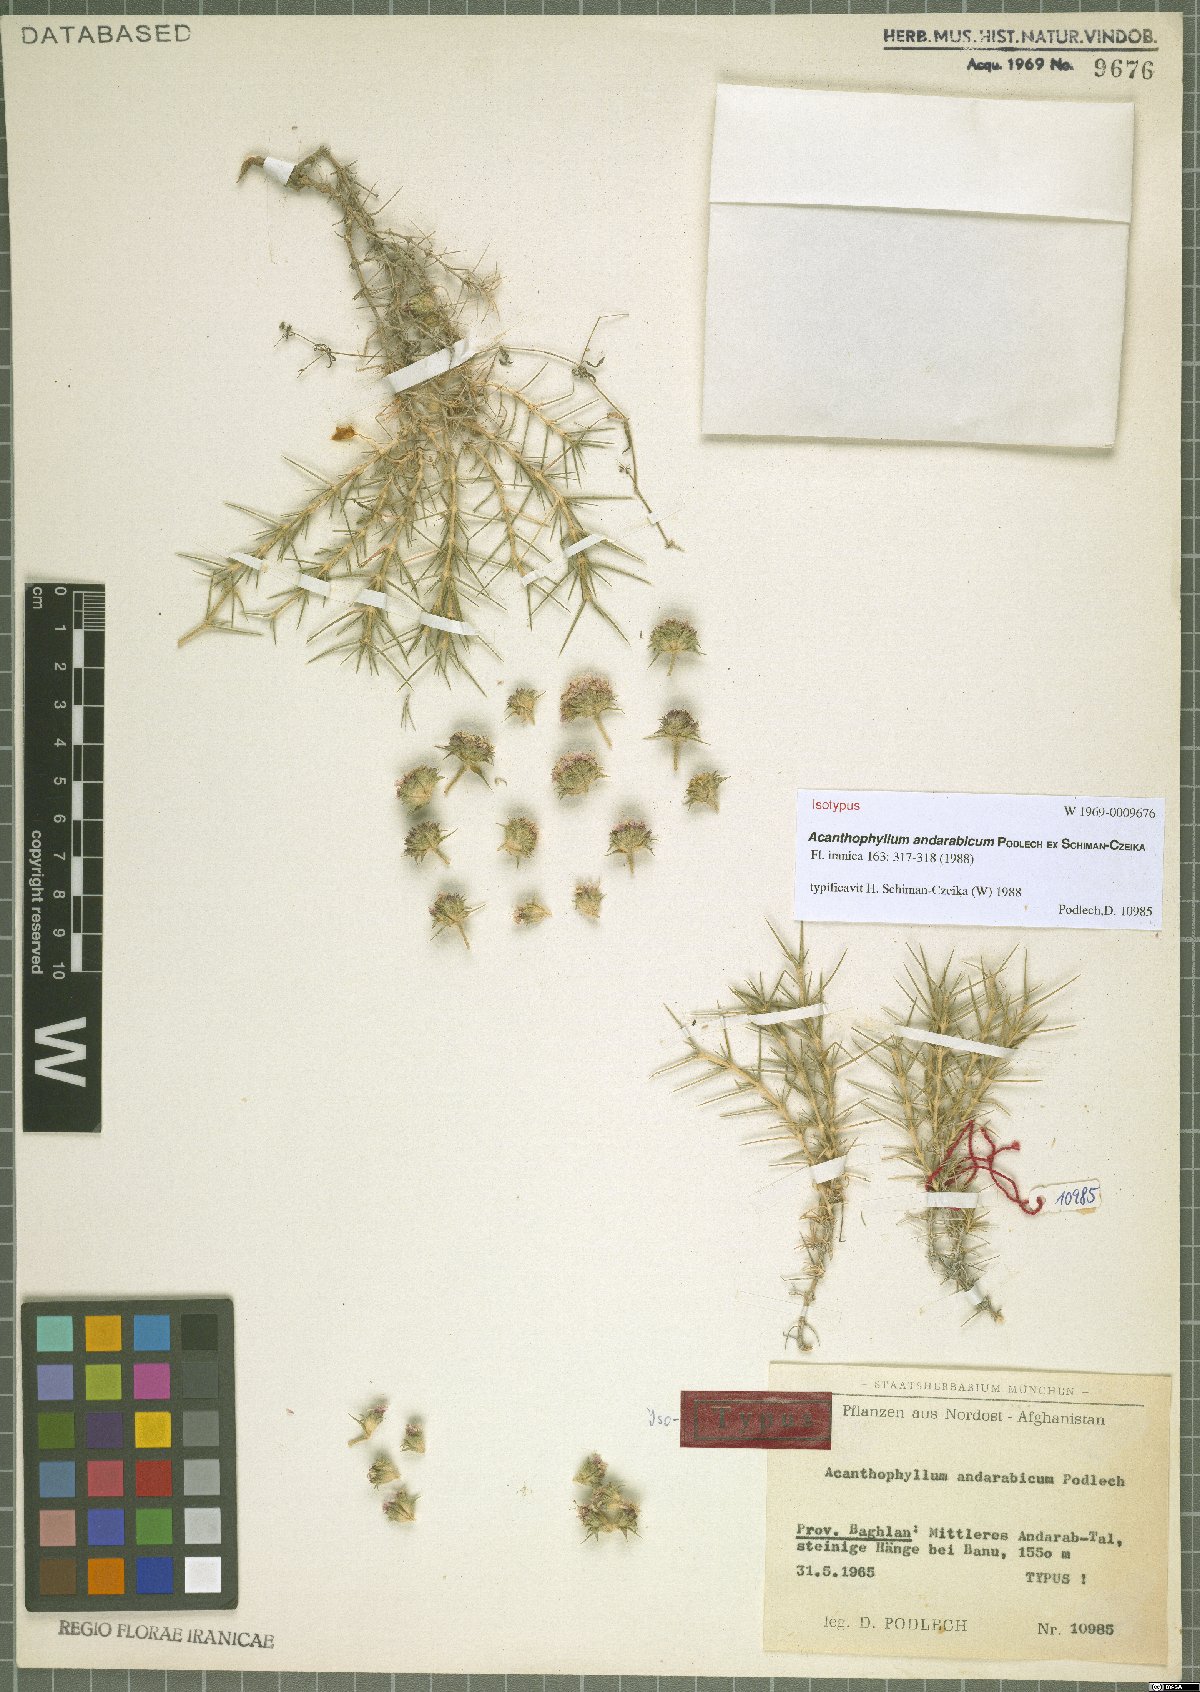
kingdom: Plantae
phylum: Tracheophyta
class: Magnoliopsida
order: Caryophyllales
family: Caryophyllaceae
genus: Acanthophyllum
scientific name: Acanthophyllum andarabicum
